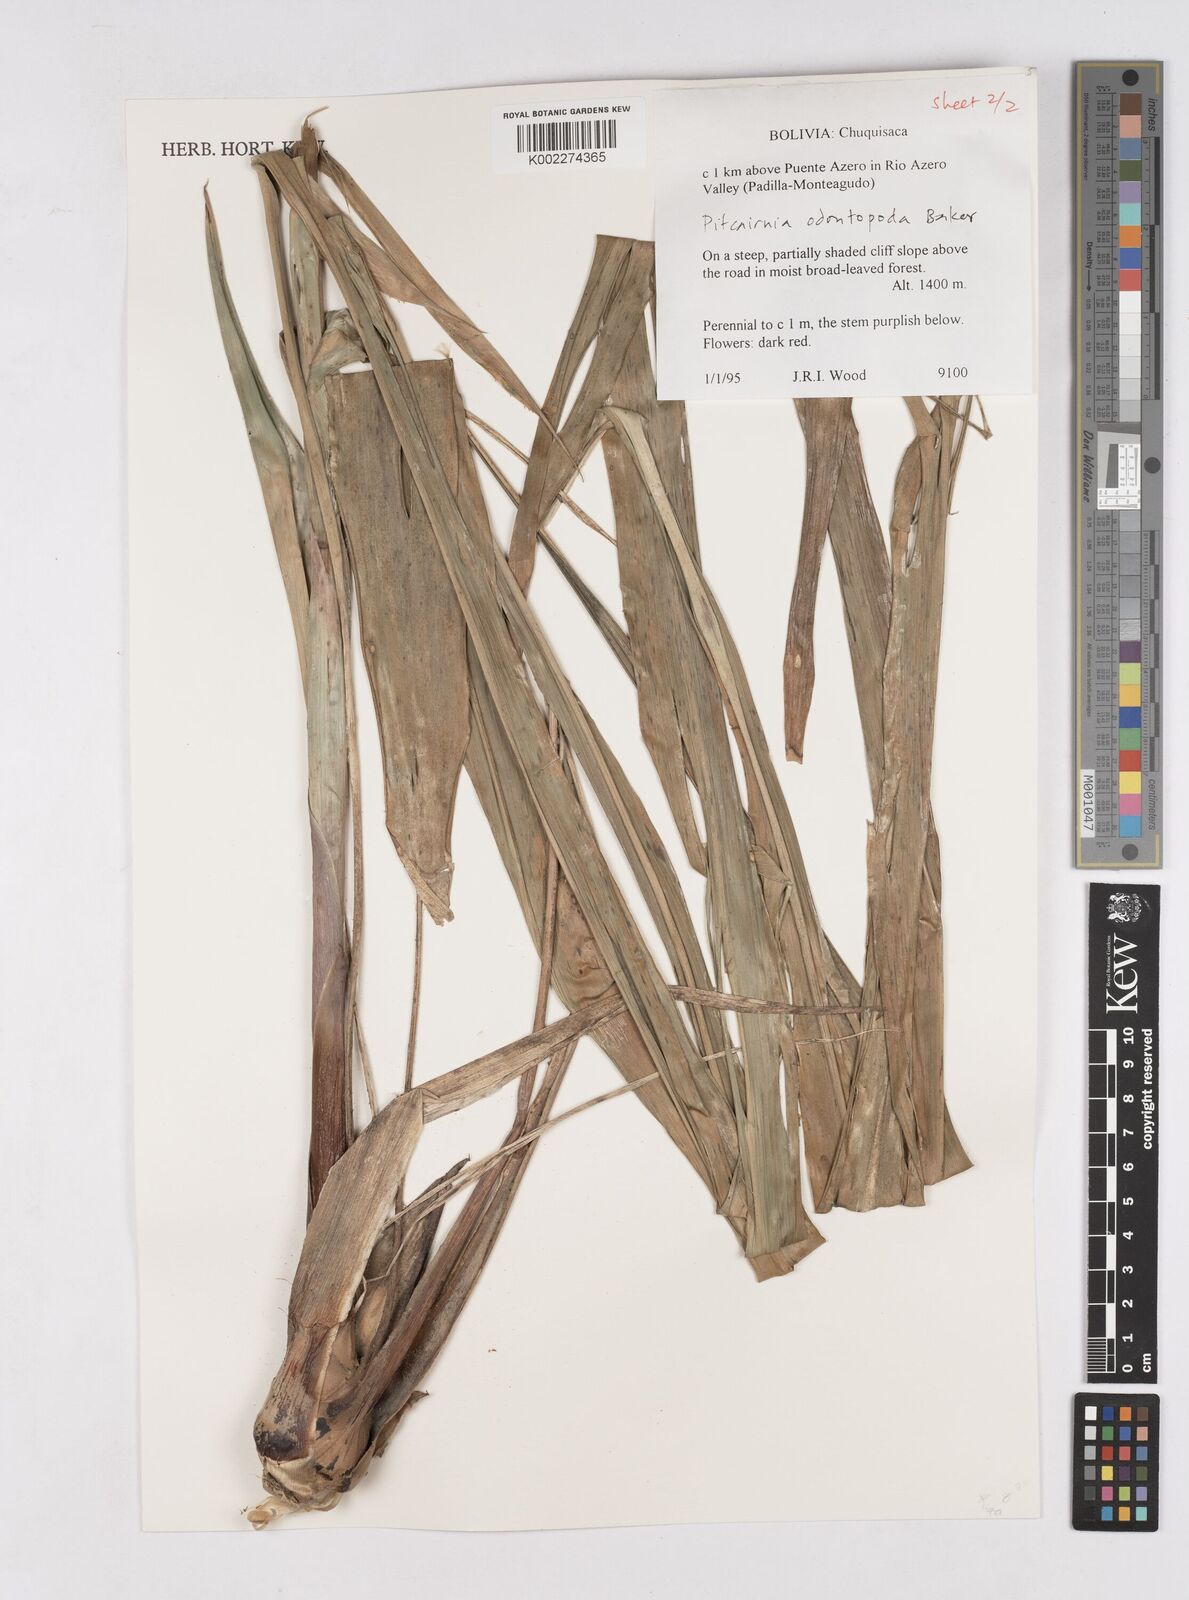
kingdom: Plantae
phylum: Tracheophyta
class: Liliopsida
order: Poales
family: Bromeliaceae
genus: Pitcairnia
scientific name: Pitcairnia odontopoda
